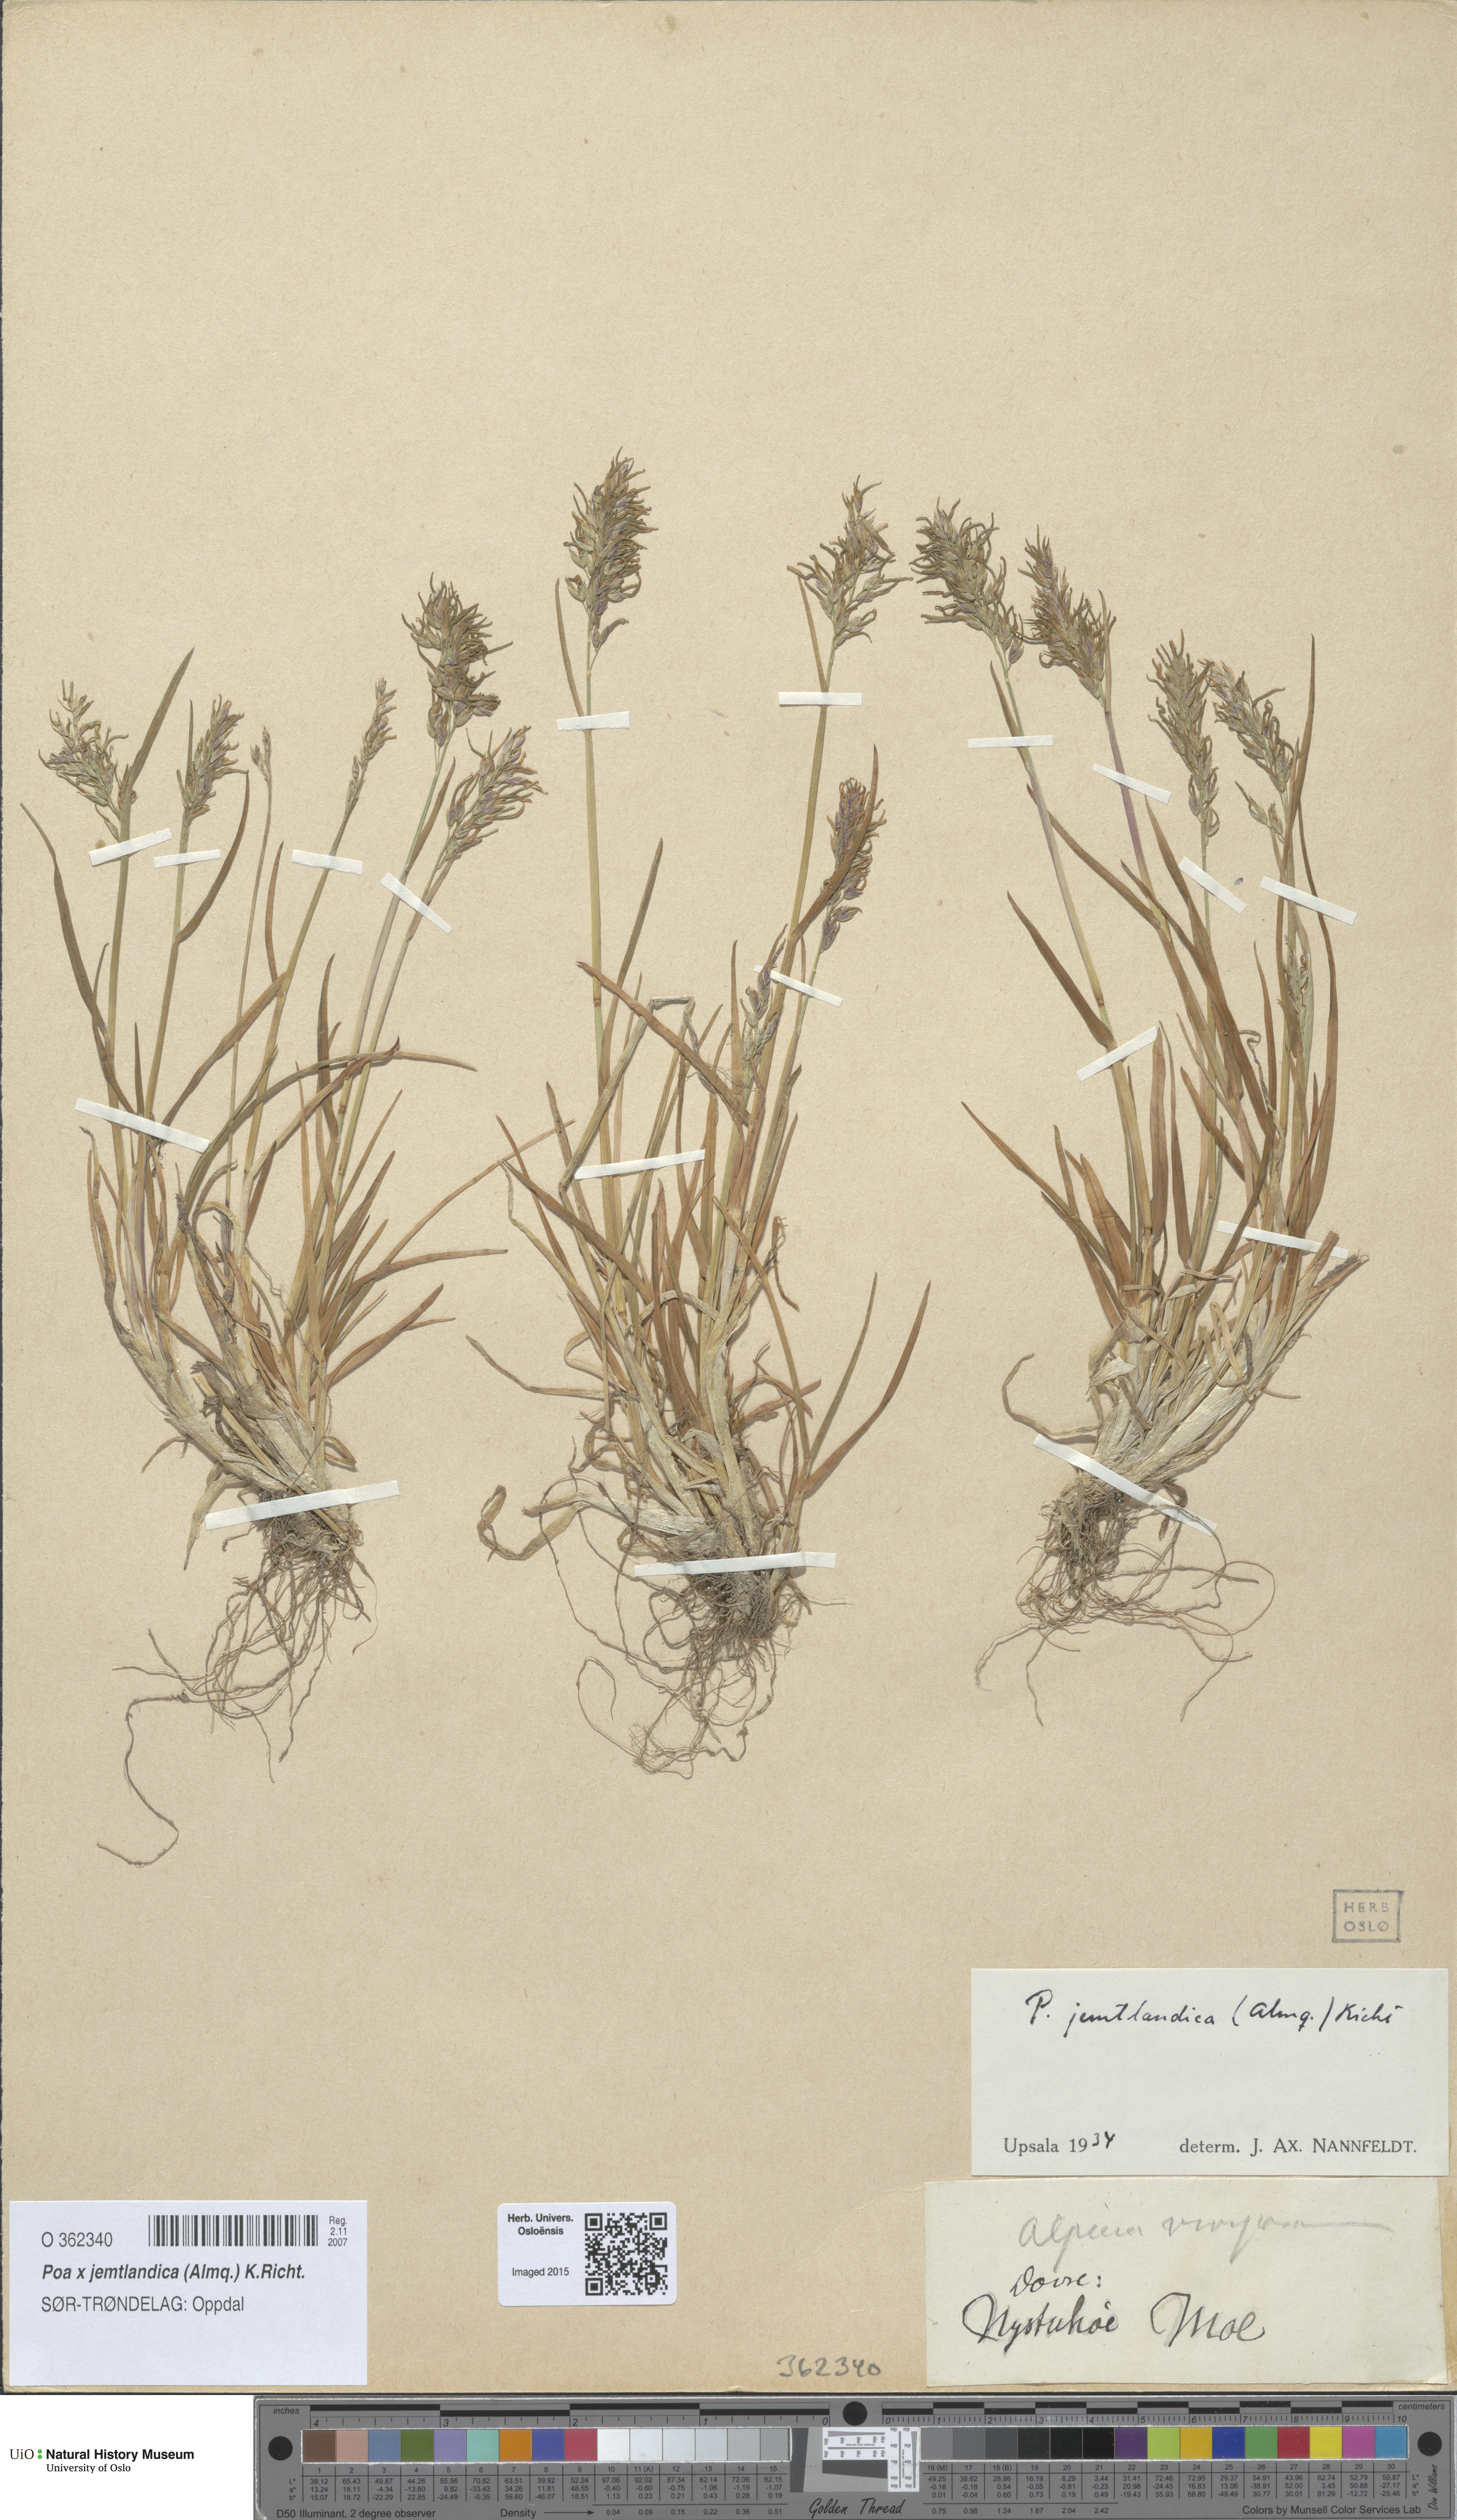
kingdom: Plantae
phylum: Tracheophyta
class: Liliopsida
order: Poales
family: Poaceae
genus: Poa
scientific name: Poa jemtlandica
